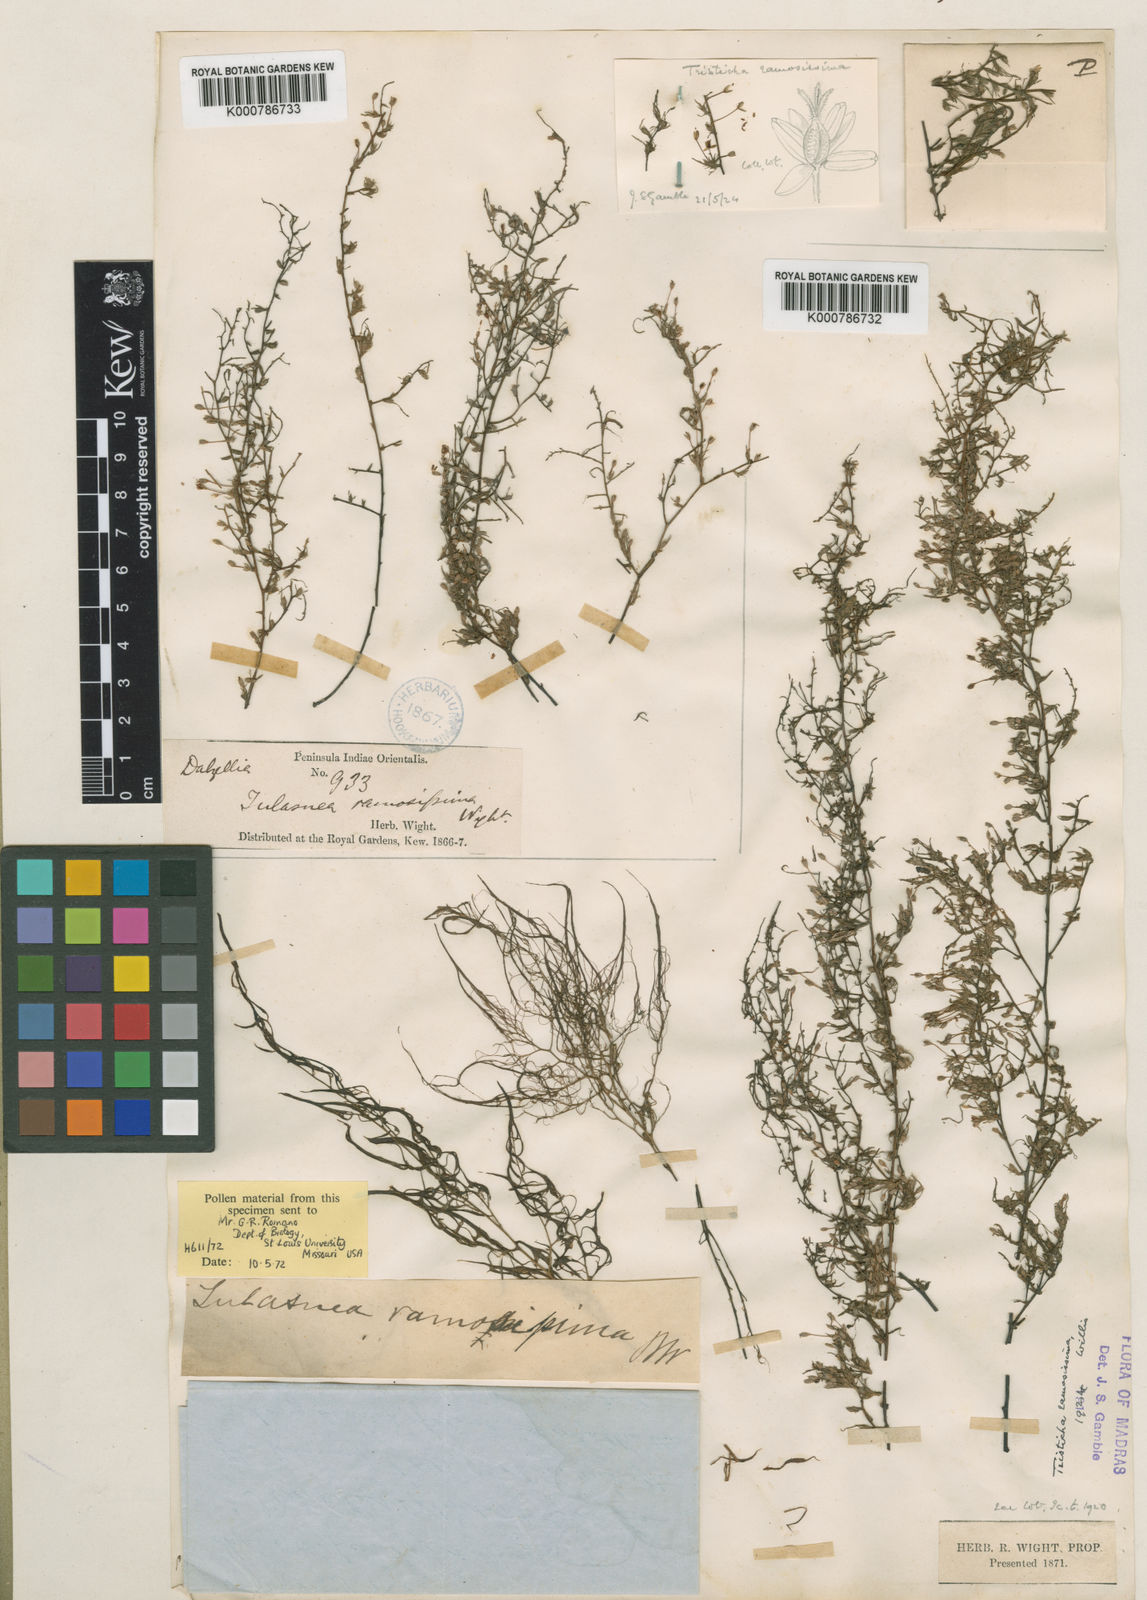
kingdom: Plantae
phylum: Tracheophyta
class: Magnoliopsida
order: Malpighiales
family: Podostemaceae
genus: Indotristicha
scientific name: Indotristicha ramosissima
